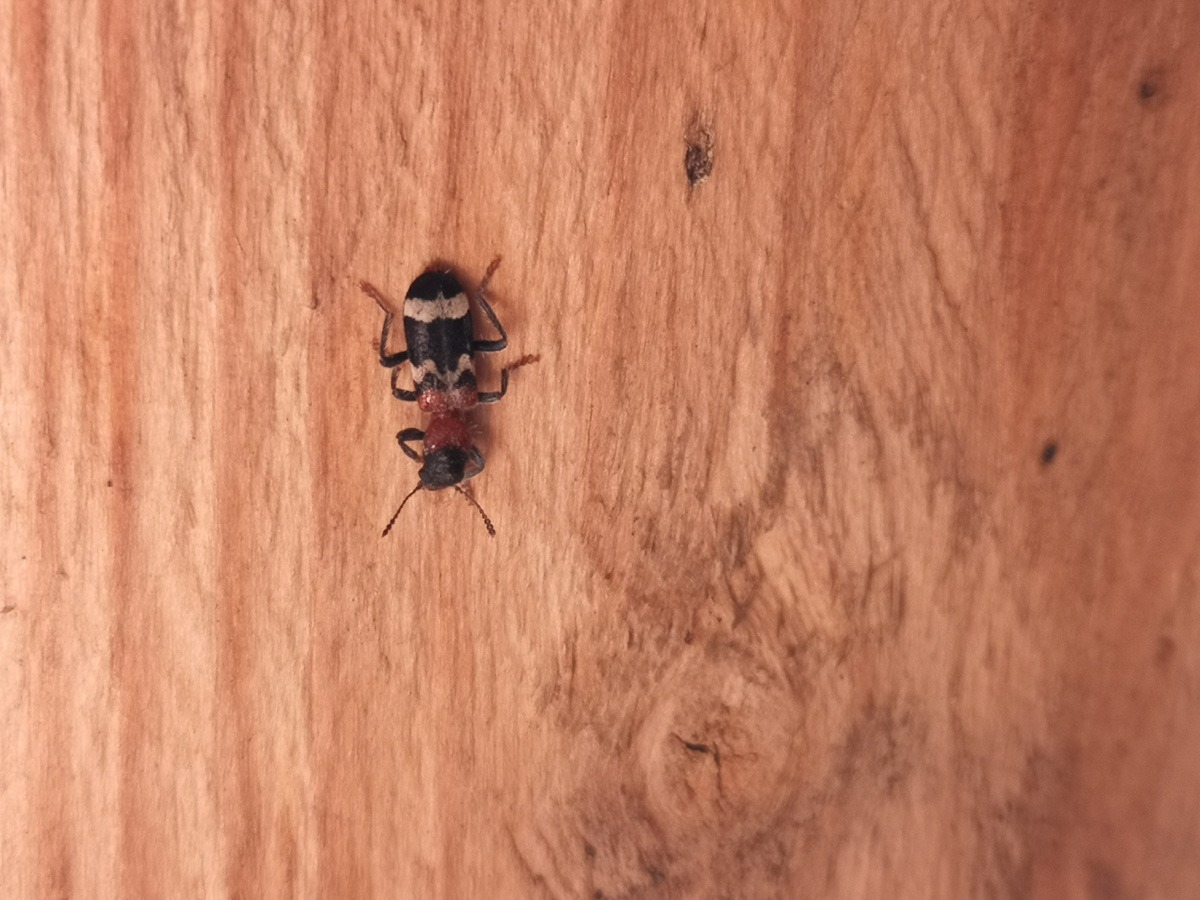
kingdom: Animalia
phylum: Arthropoda
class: Insecta
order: Coleoptera
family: Cleridae
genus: Thanasimus
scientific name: Thanasimus formicarius
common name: Myrebille
